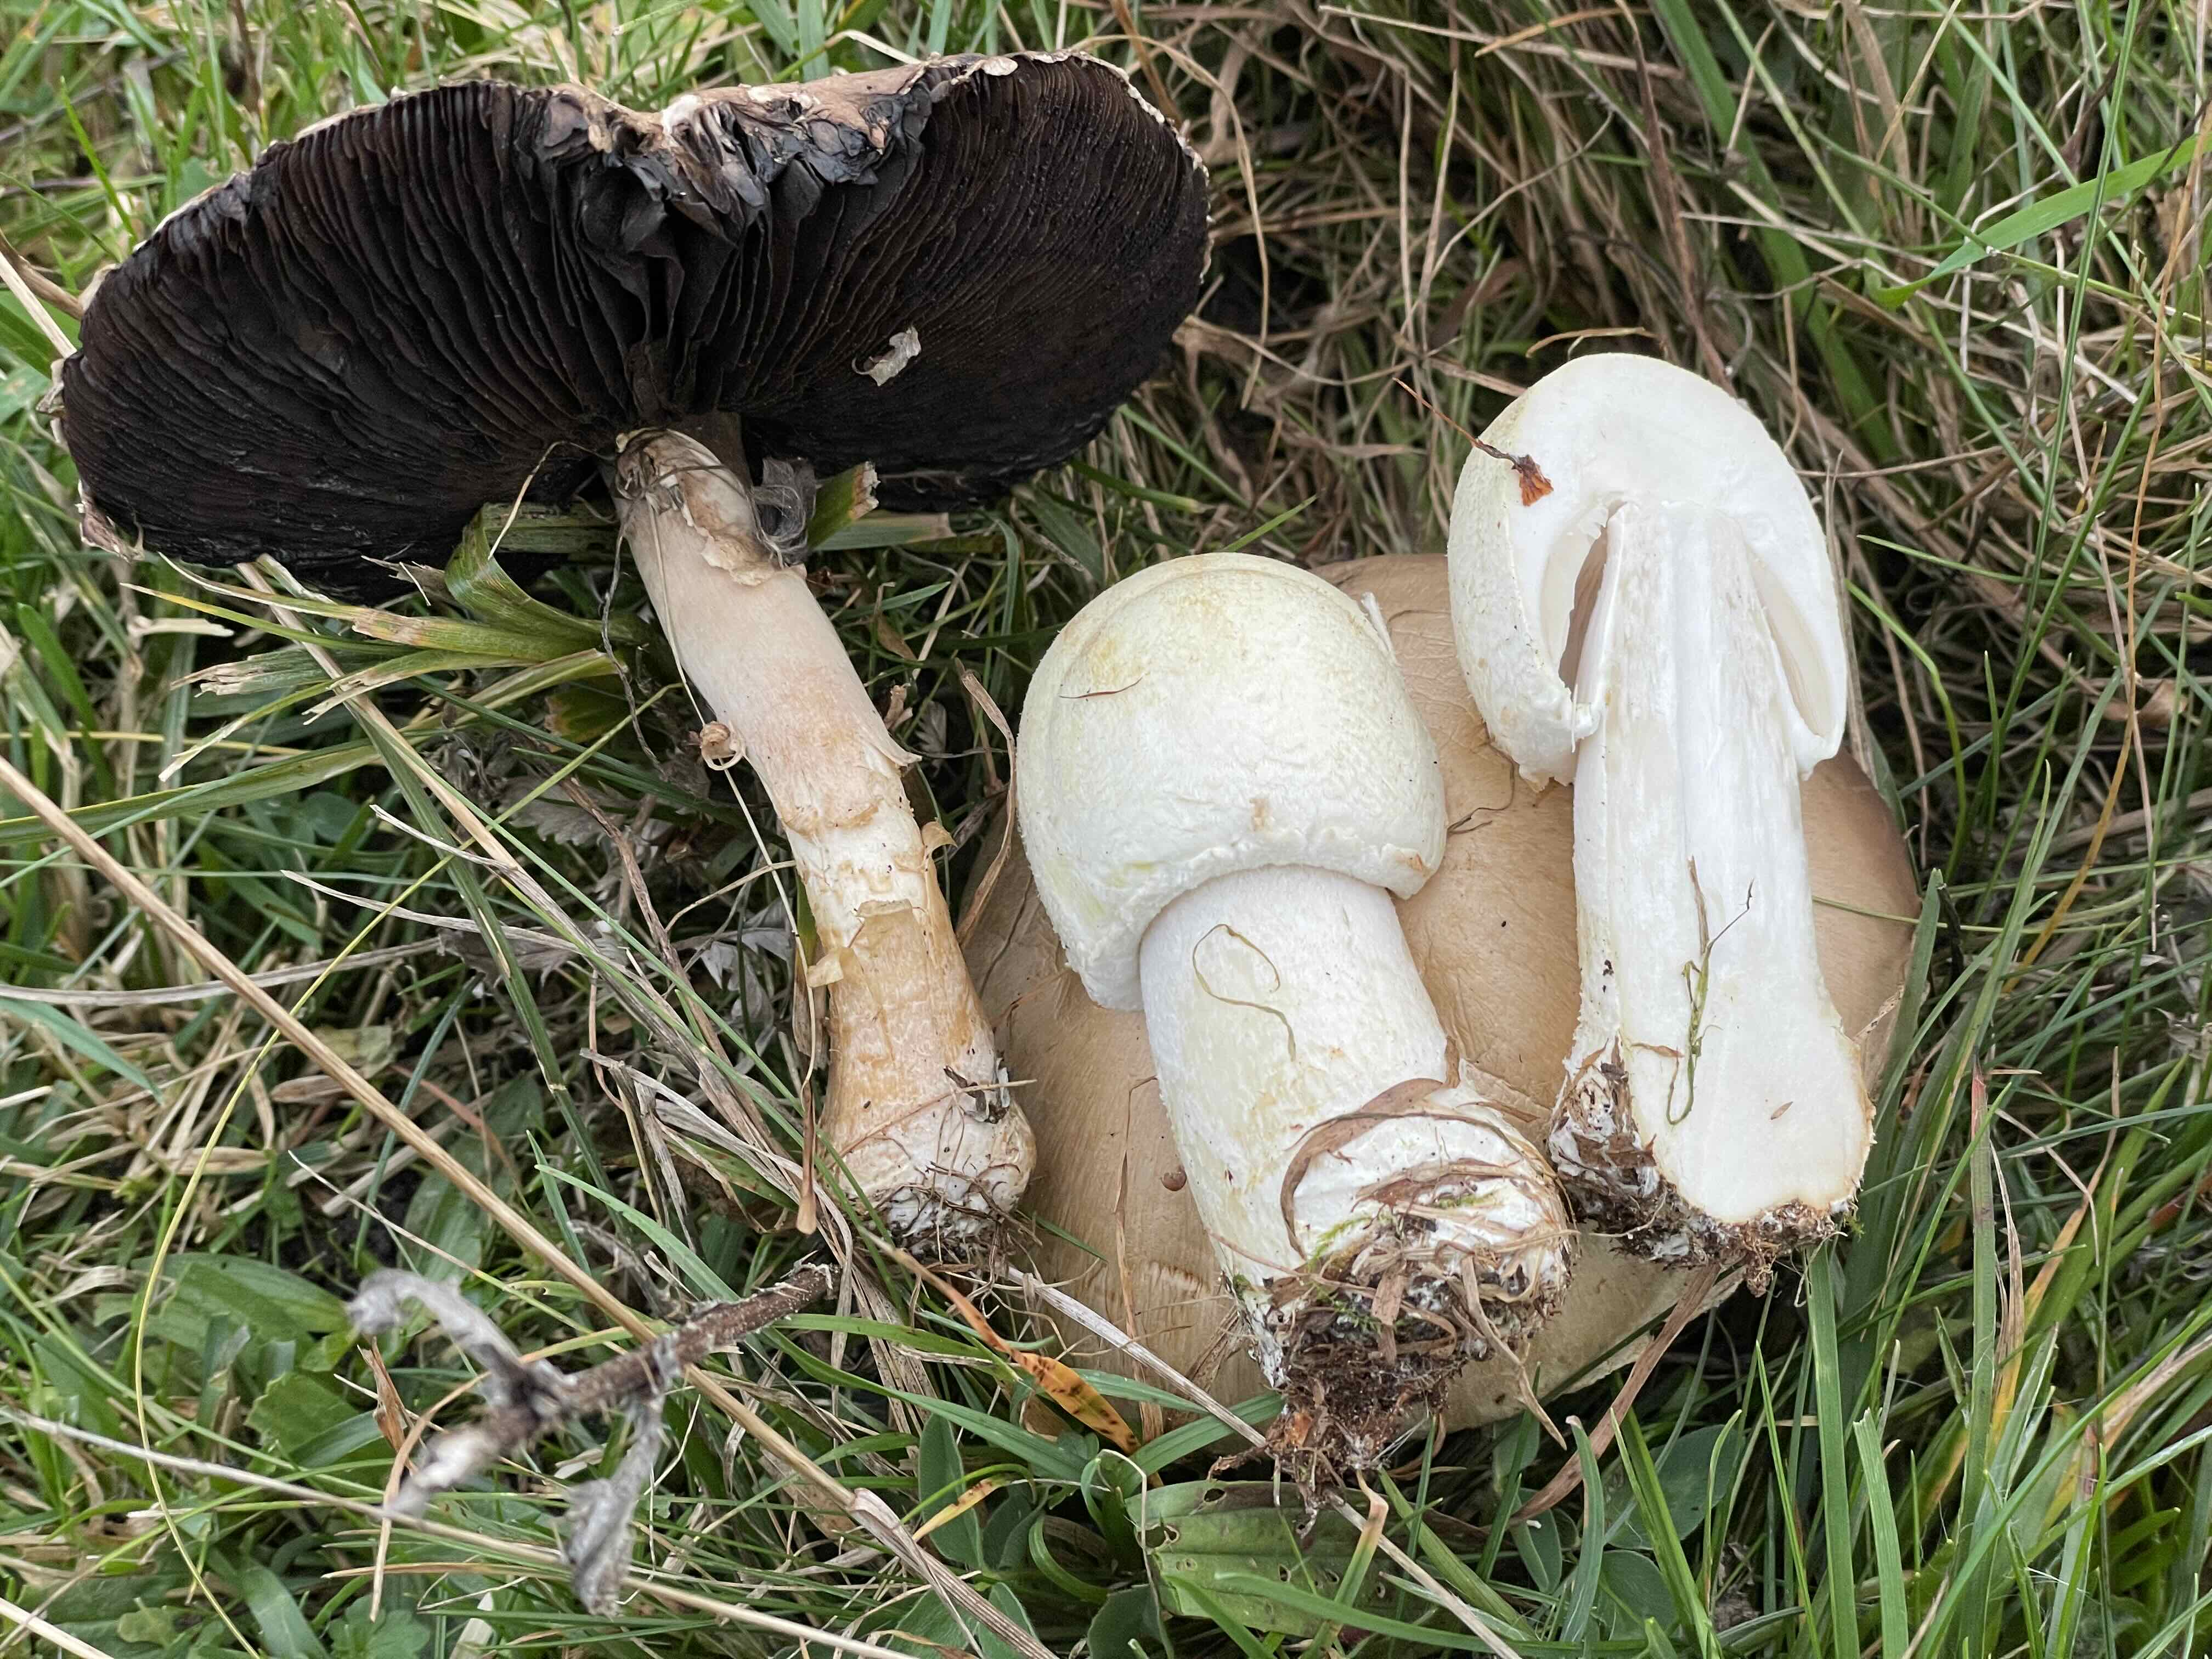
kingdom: Fungi
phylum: Basidiomycota
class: Agaricomycetes
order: Agaricales
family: Agaricaceae
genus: Agaricus
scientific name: Agaricus arvensis
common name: ager-champignon
